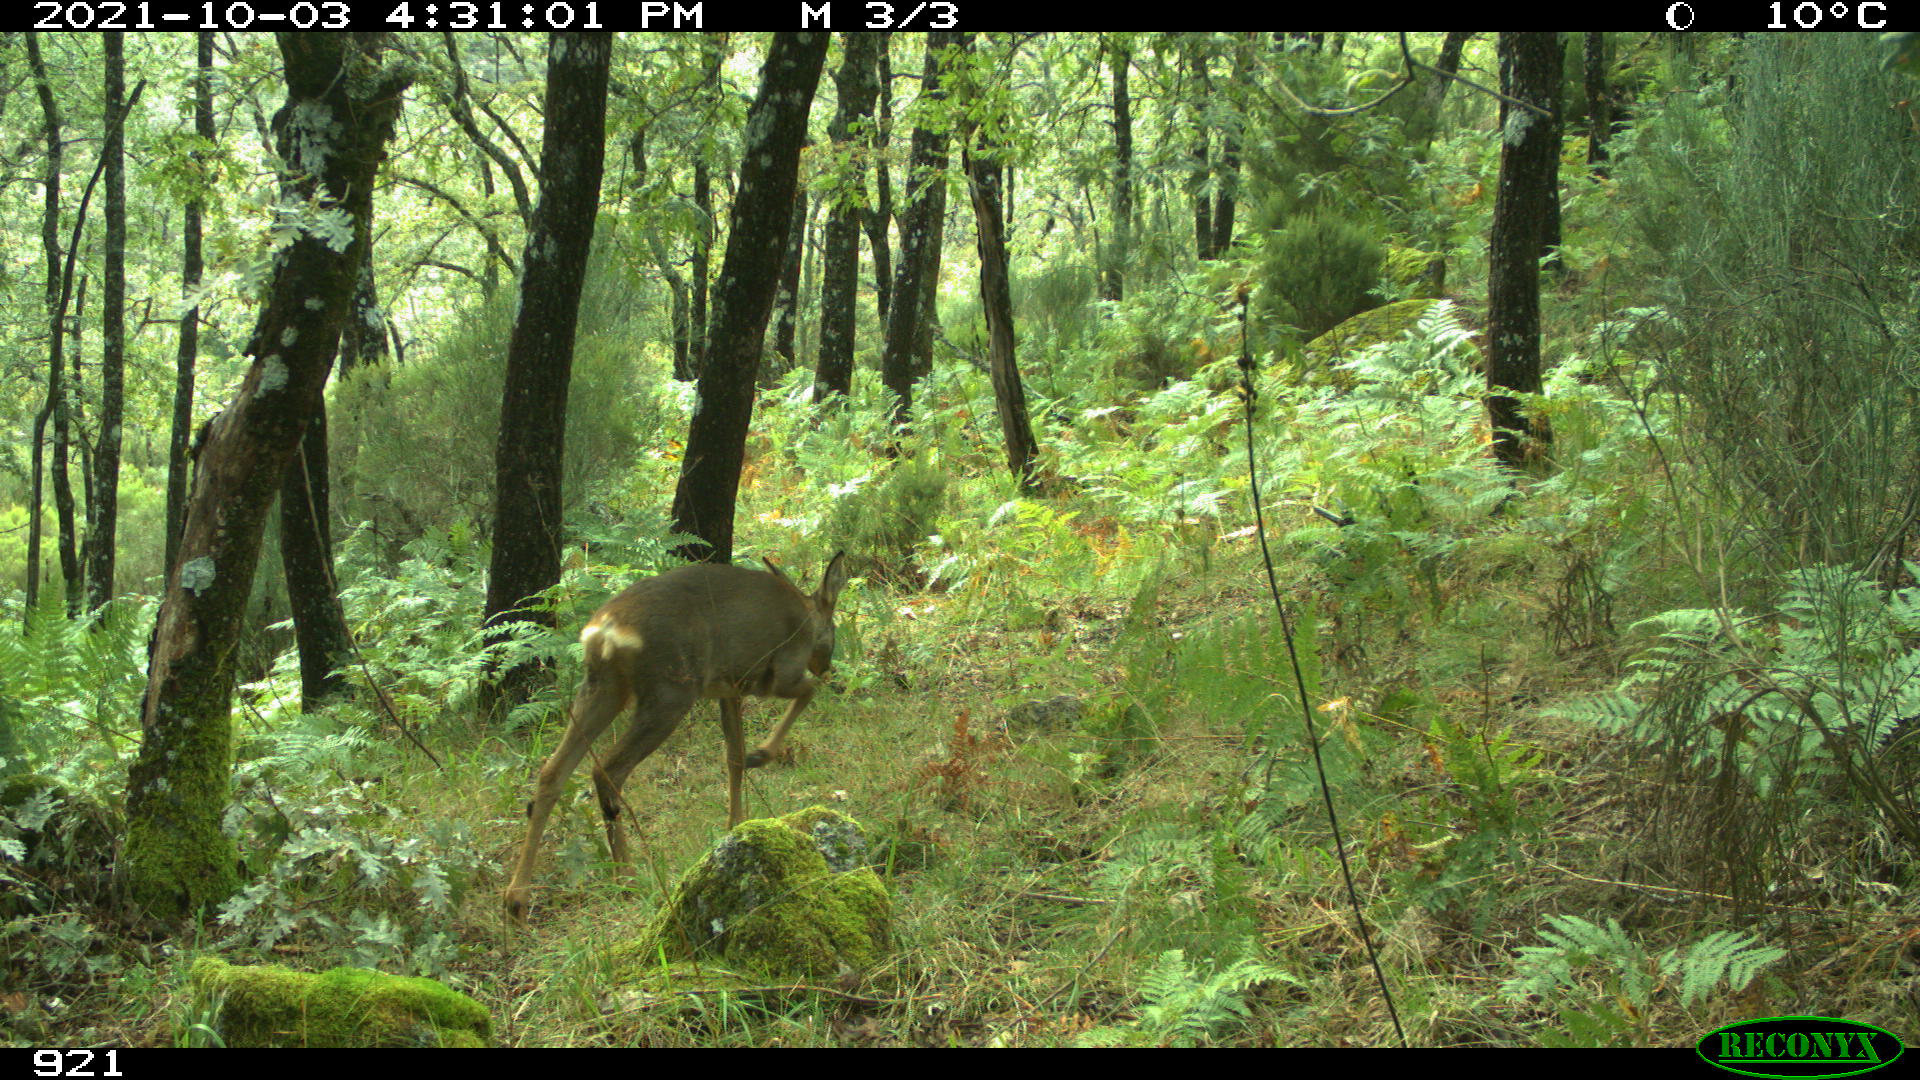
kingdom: Animalia
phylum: Chordata
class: Mammalia
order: Artiodactyla
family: Cervidae
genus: Capreolus
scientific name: Capreolus capreolus
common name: Western roe deer
